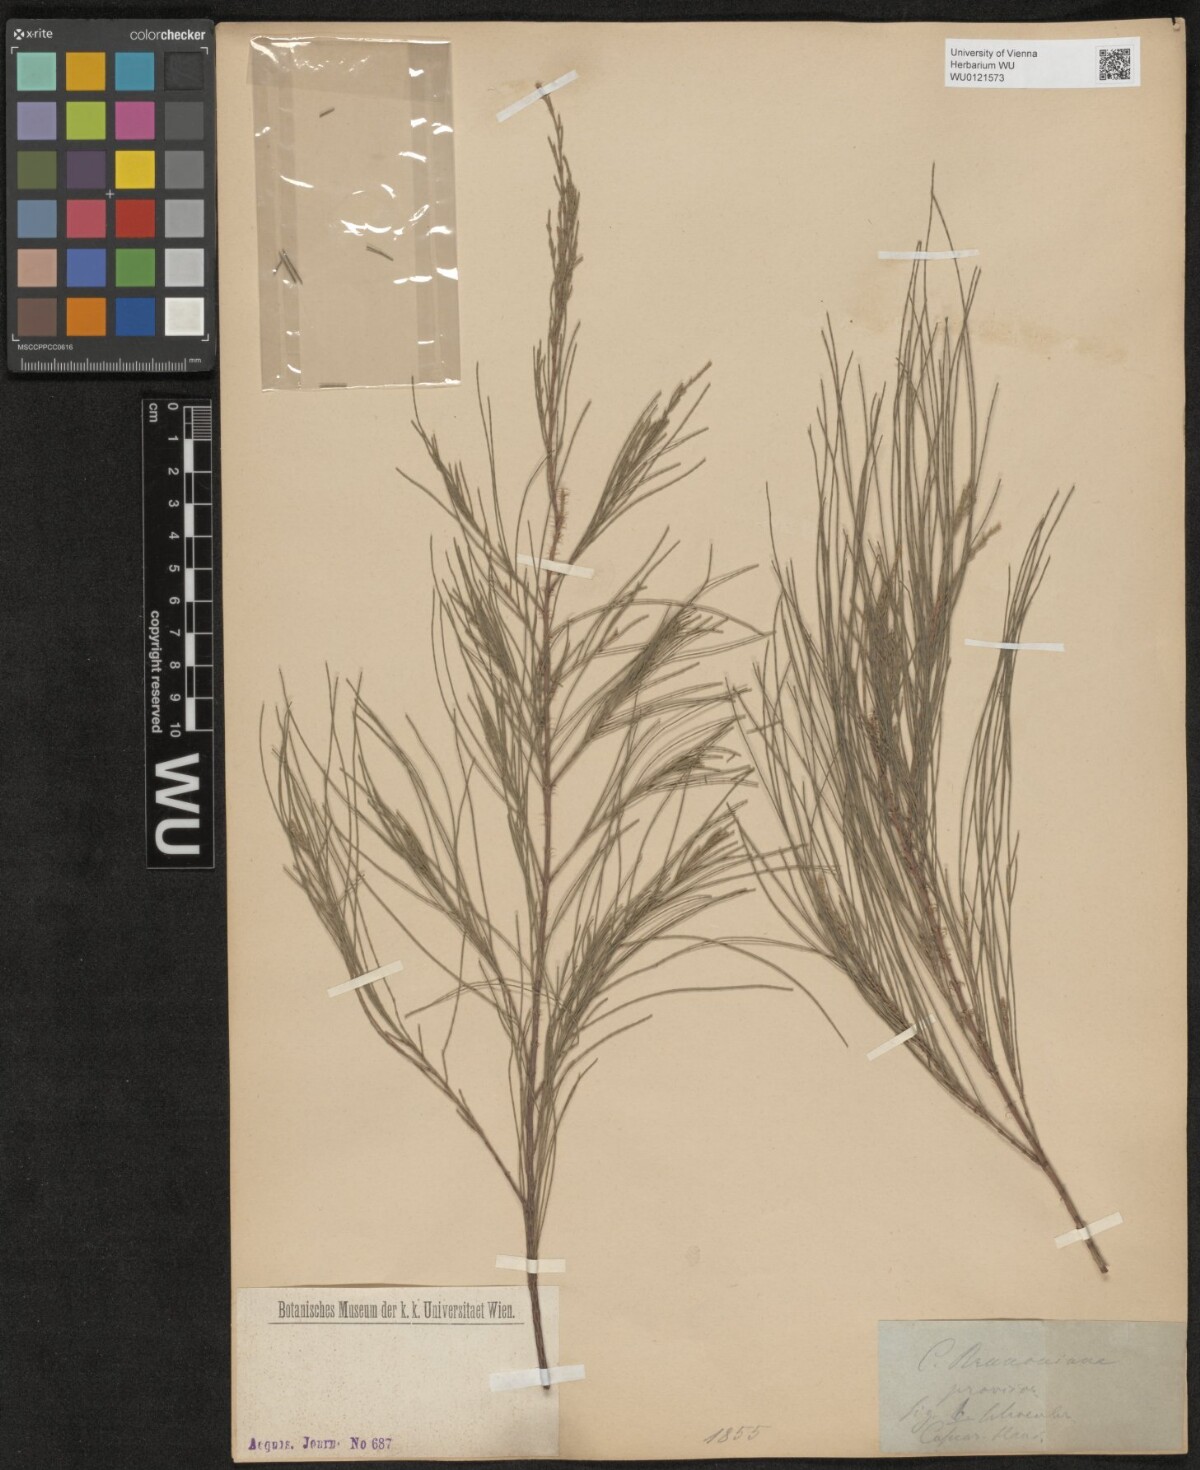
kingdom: Plantae
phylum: Tracheophyta
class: Magnoliopsida
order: Fagales
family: Casuarinaceae
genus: Casuarina
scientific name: Casuarina equisetifolia
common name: Beach sheoak
